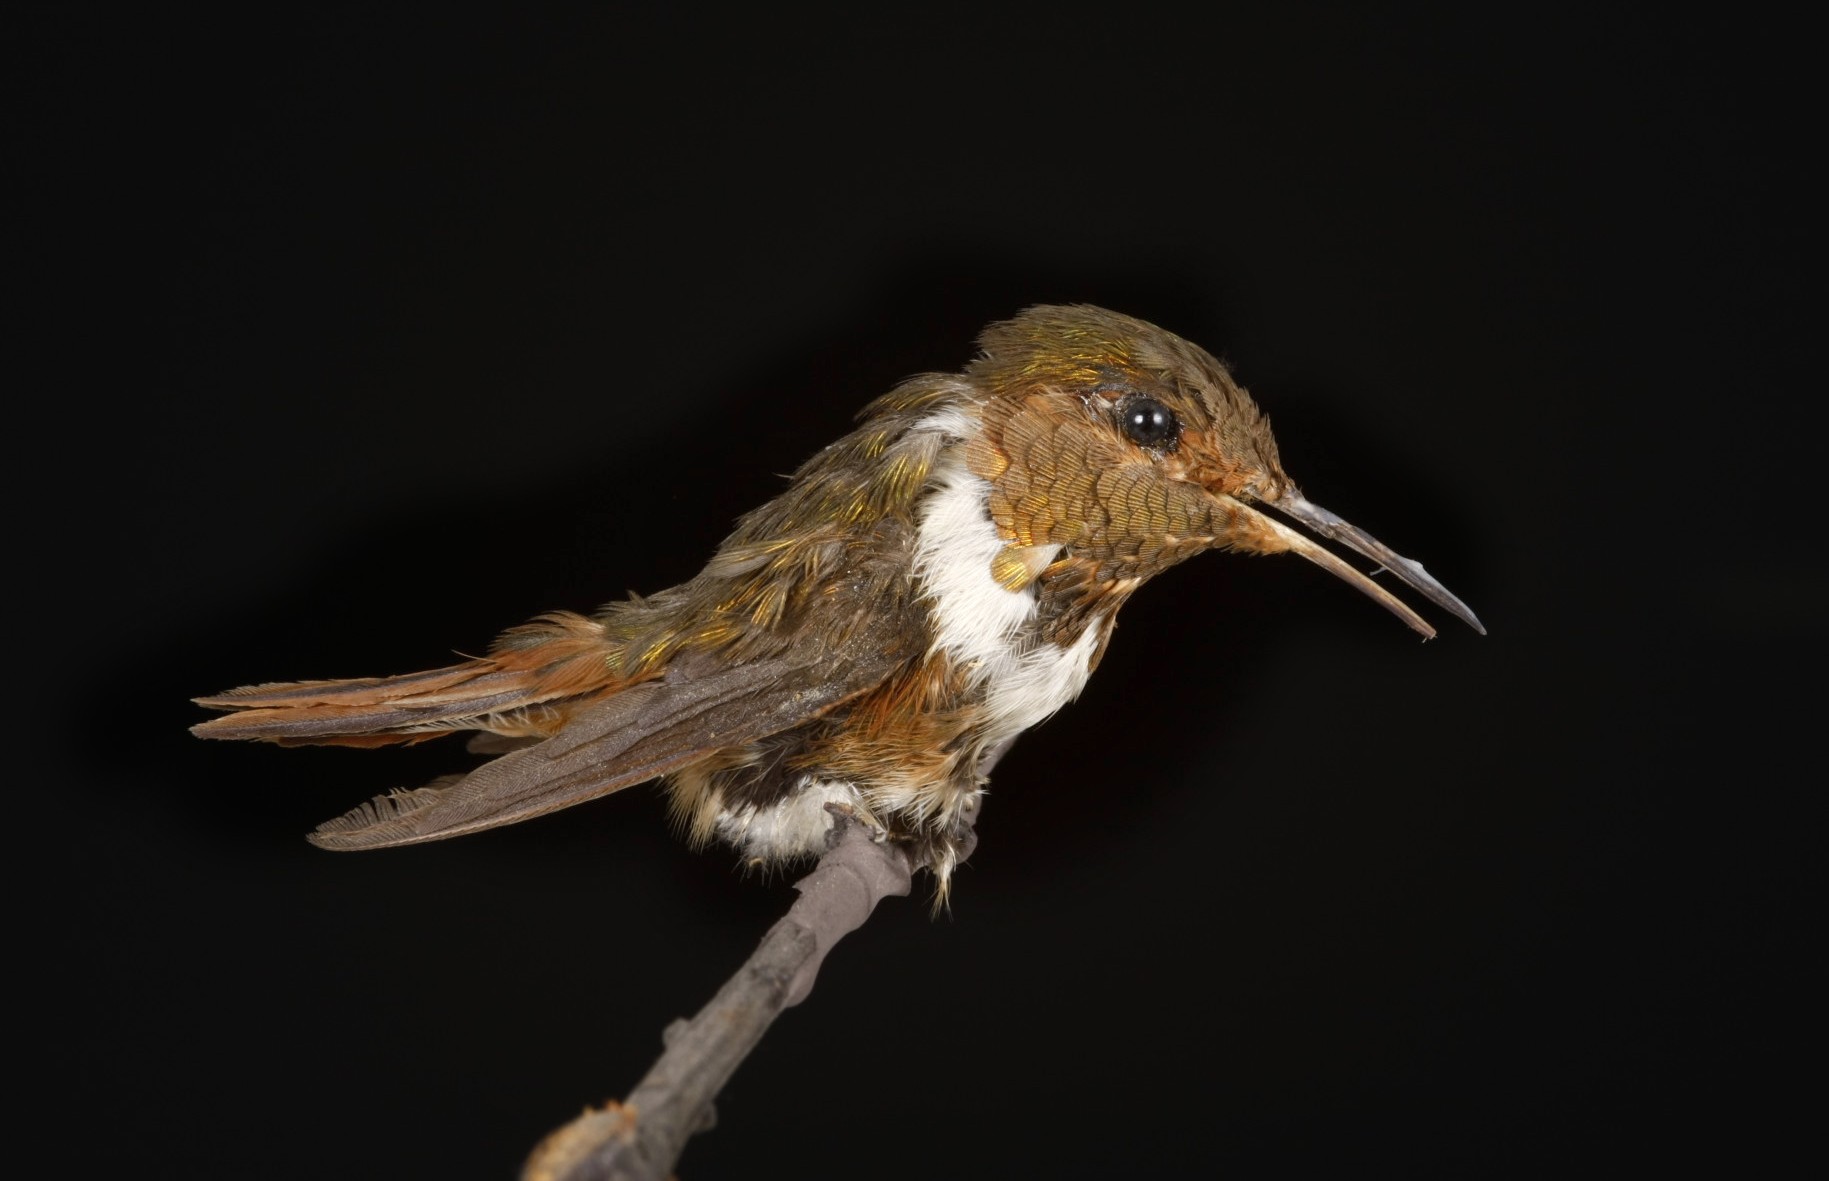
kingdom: Animalia
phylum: Chordata
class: Aves
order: Apodiformes
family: Trochilidae
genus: Selasphorus
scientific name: Selasphorus heloisa
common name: Bumblebee hummingbird
